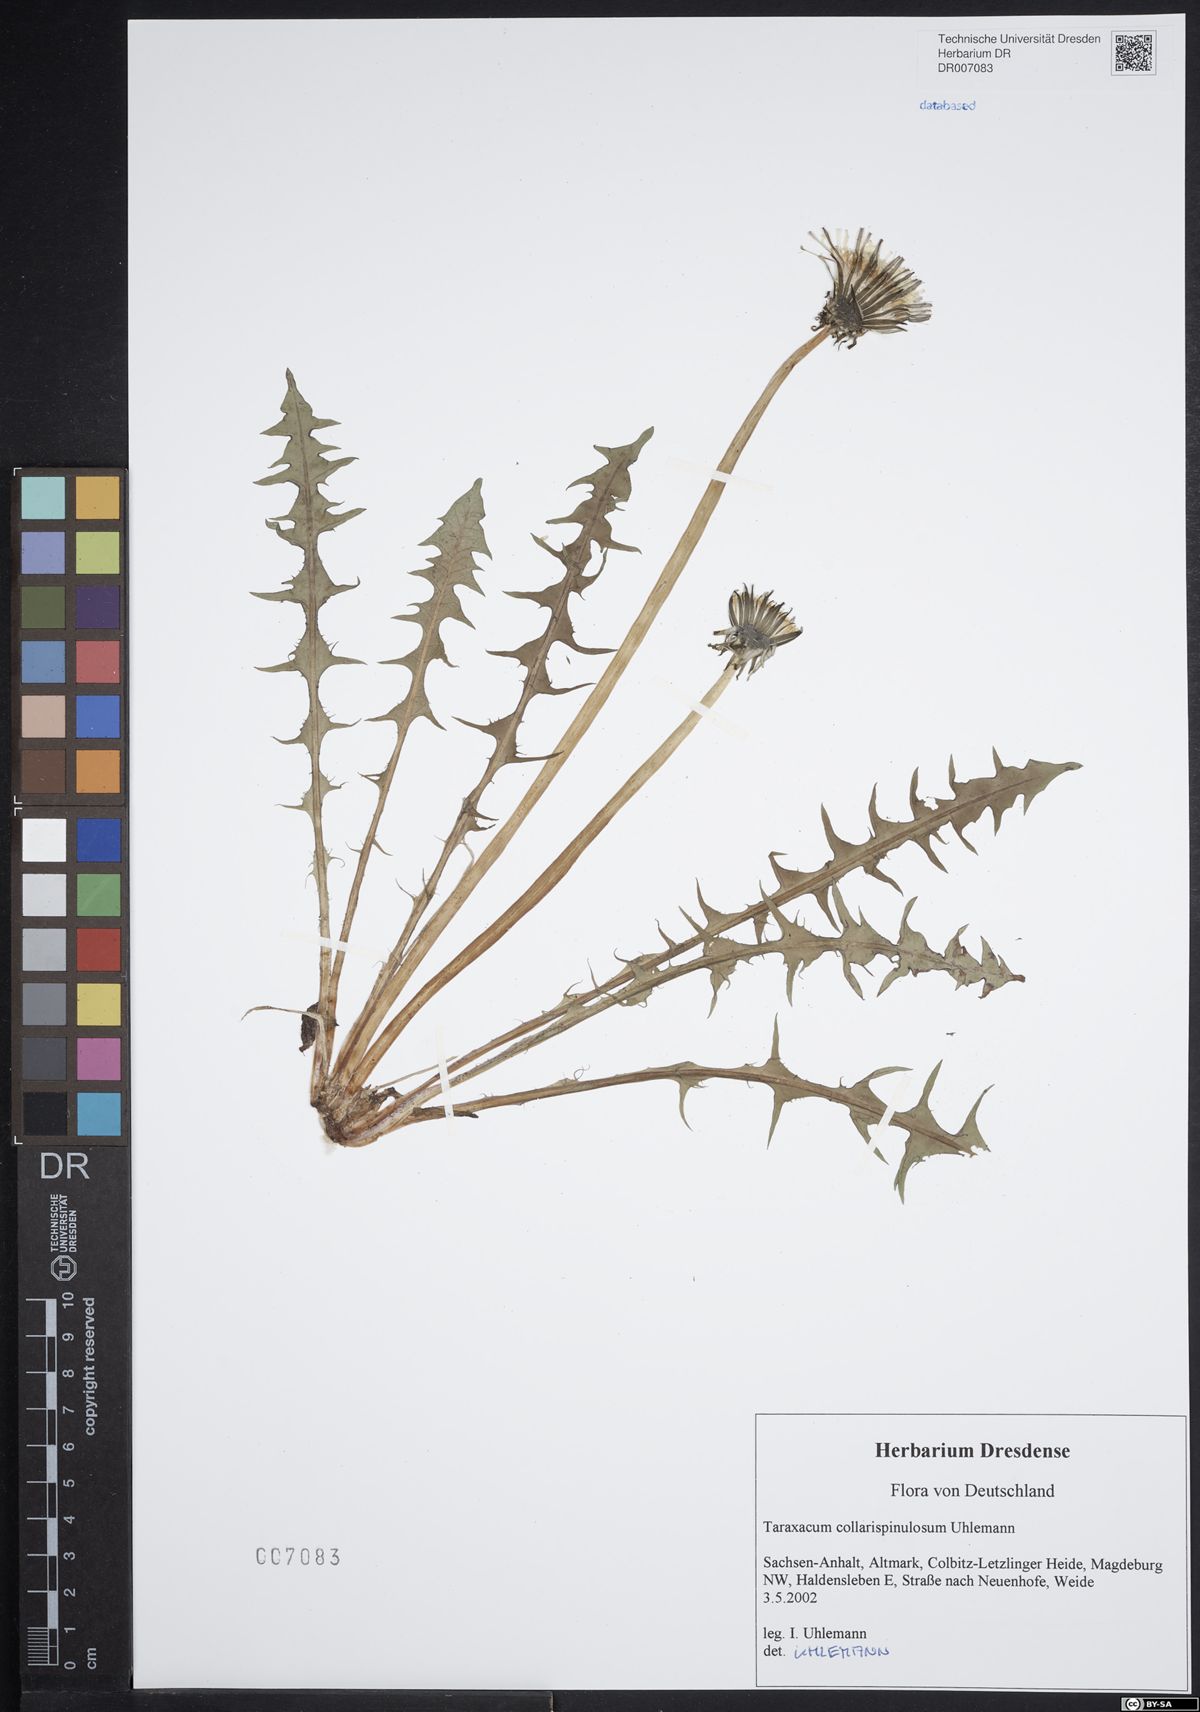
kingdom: Plantae
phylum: Tracheophyta
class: Magnoliopsida
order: Asterales
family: Asteraceae
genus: Taraxacum
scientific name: Taraxacum collarispinulosum
